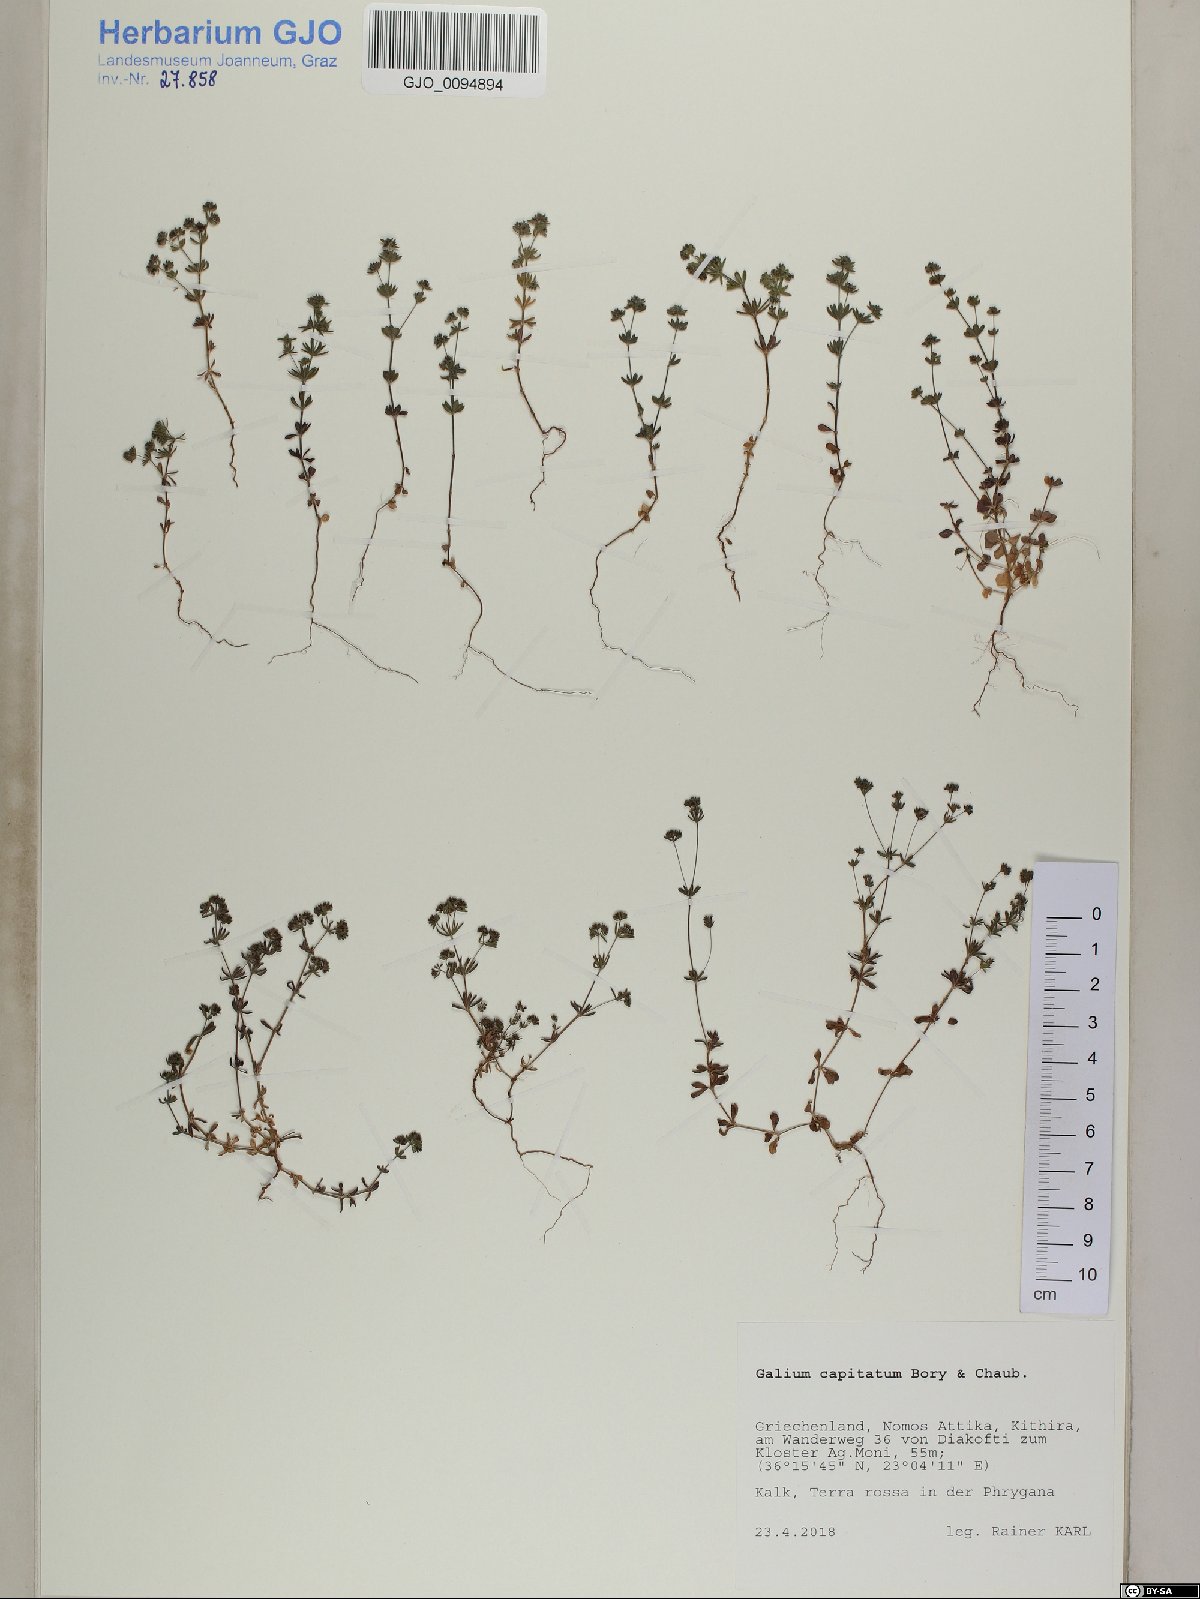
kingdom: Plantae
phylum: Tracheophyta
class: Magnoliopsida
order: Gentianales
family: Rubiaceae
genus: Galium
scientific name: Galium capitatum
